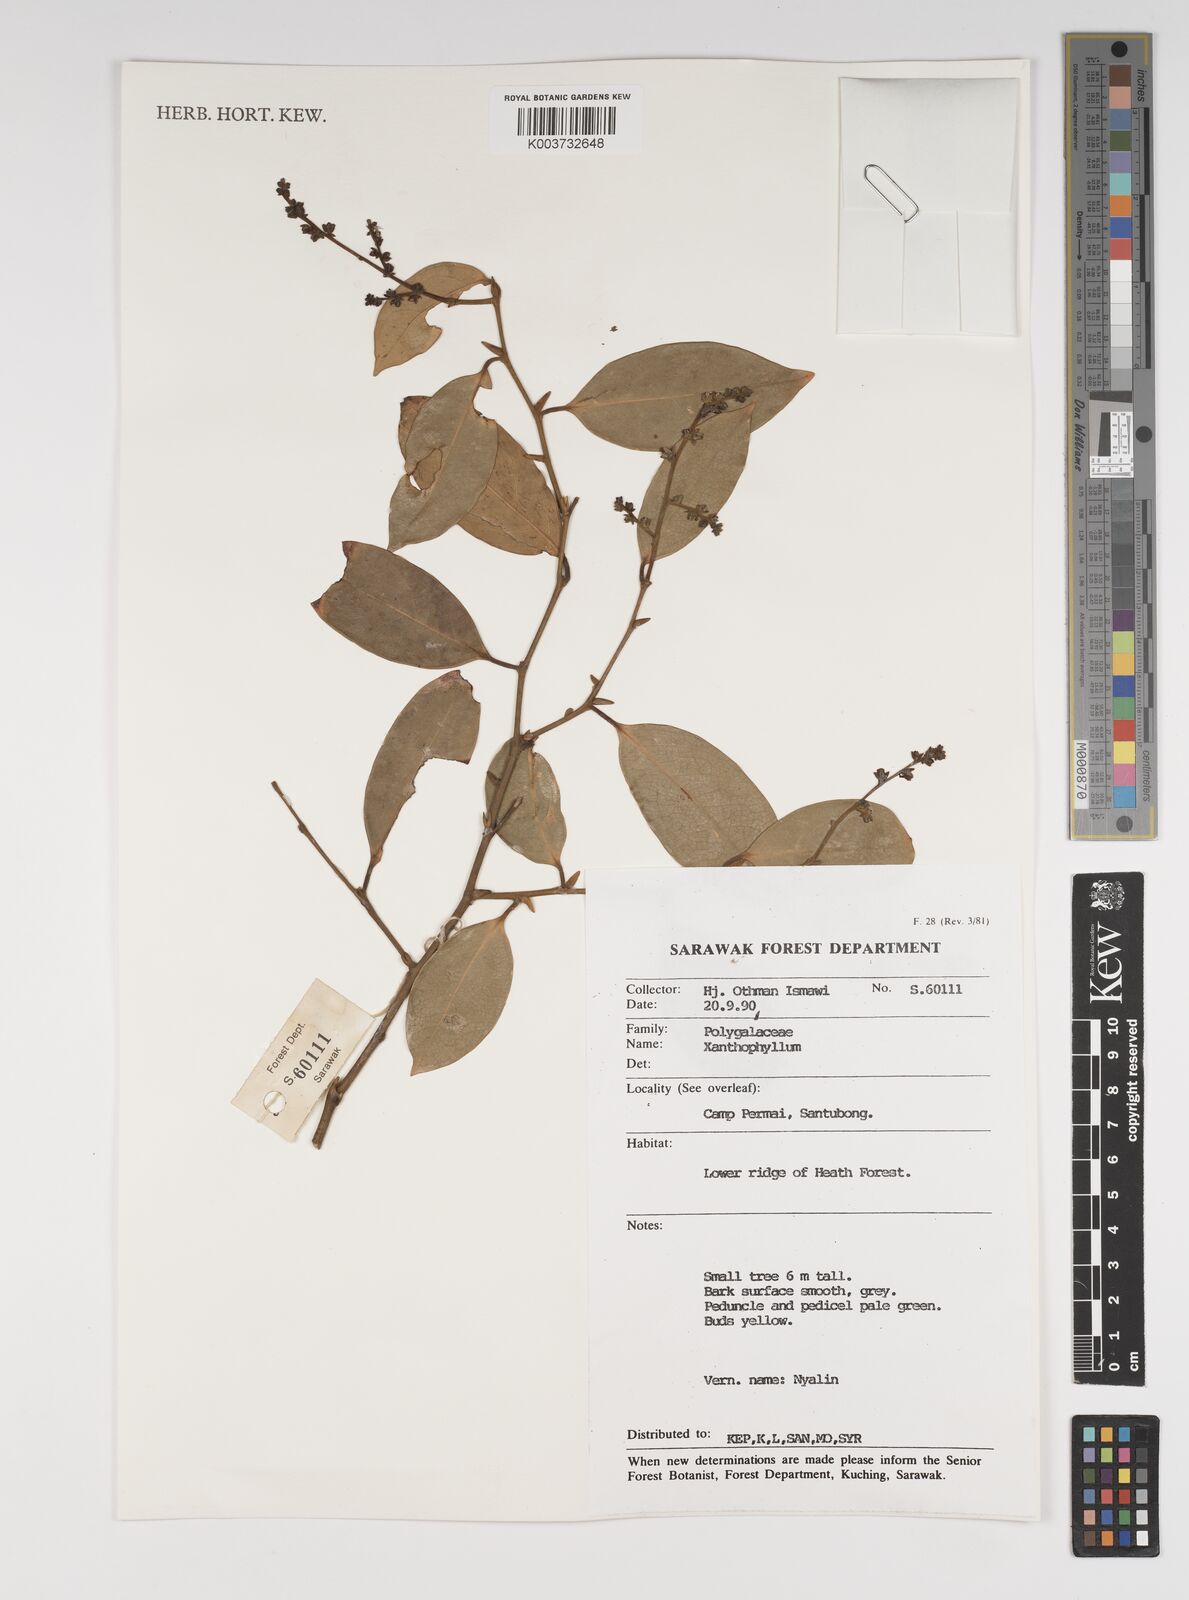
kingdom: Plantae
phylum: Tracheophyta
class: Magnoliopsida
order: Fabales
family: Polygalaceae
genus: Xanthophyllum
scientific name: Xanthophyllum
